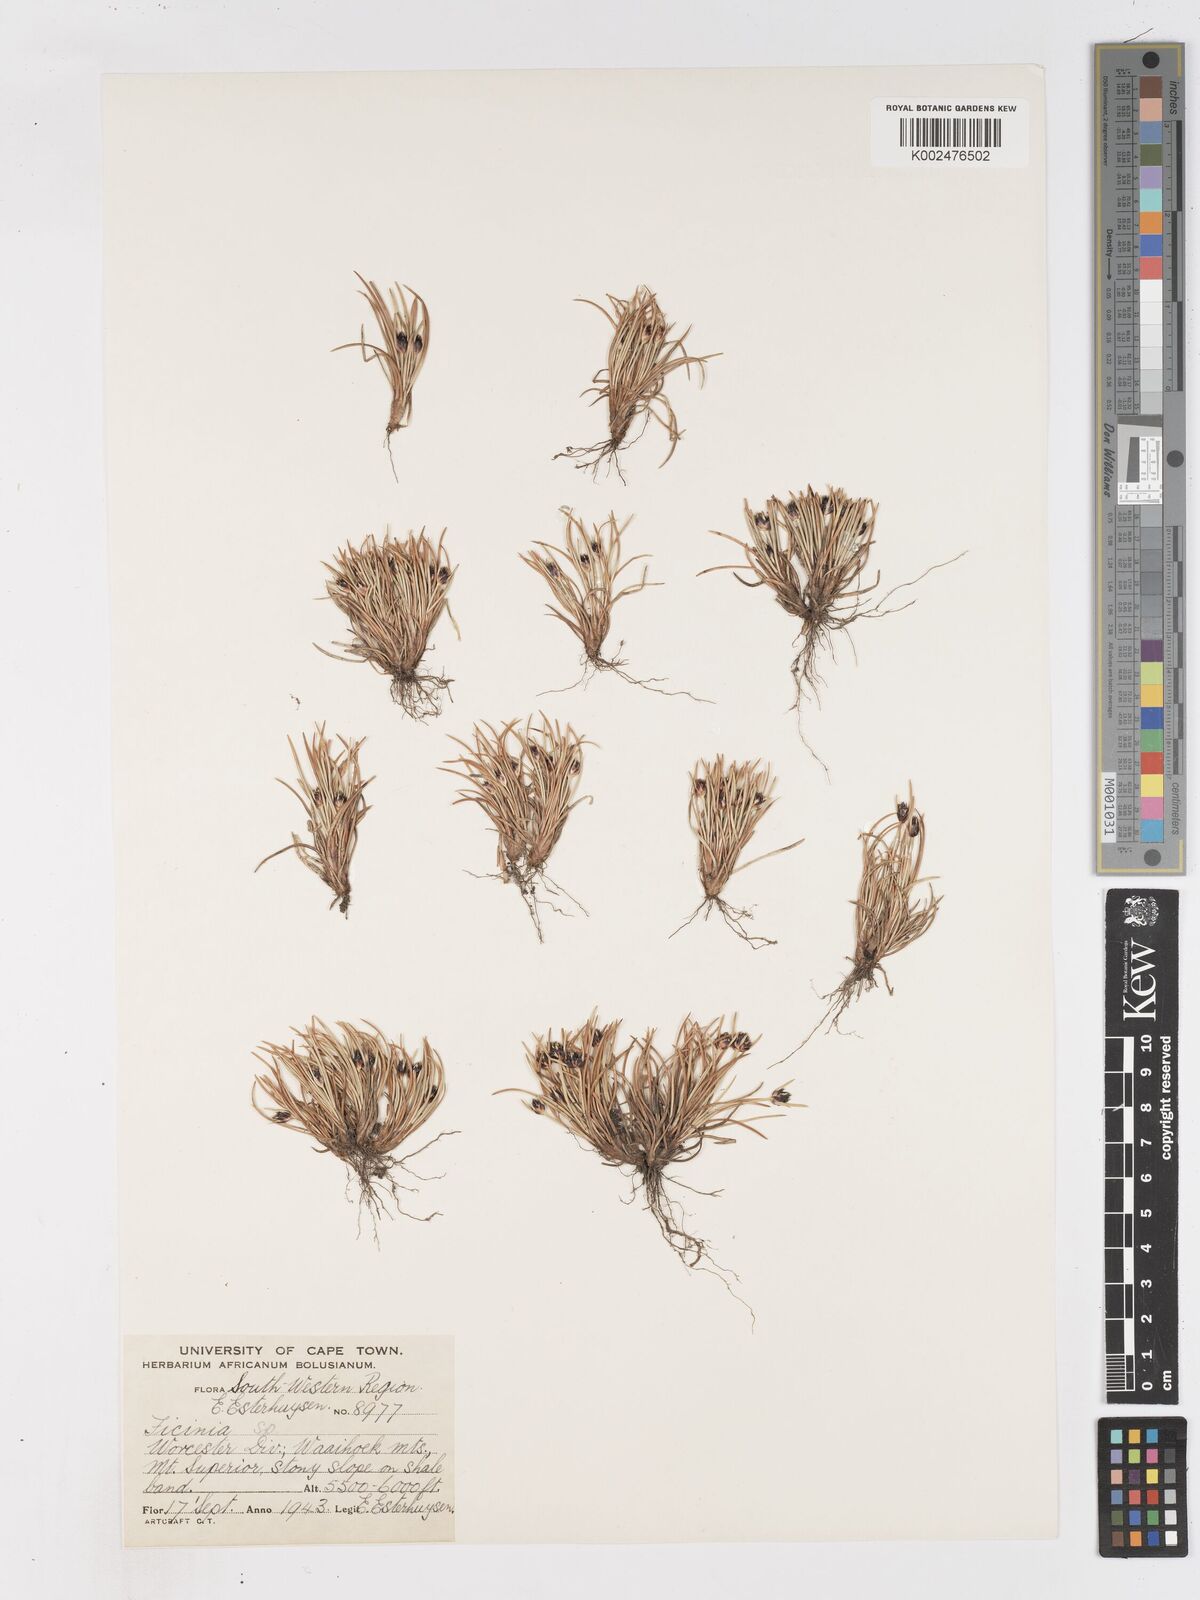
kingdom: Plantae
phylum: Tracheophyta
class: Liliopsida
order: Poales
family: Cyperaceae
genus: Ficinia
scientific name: Ficinia
